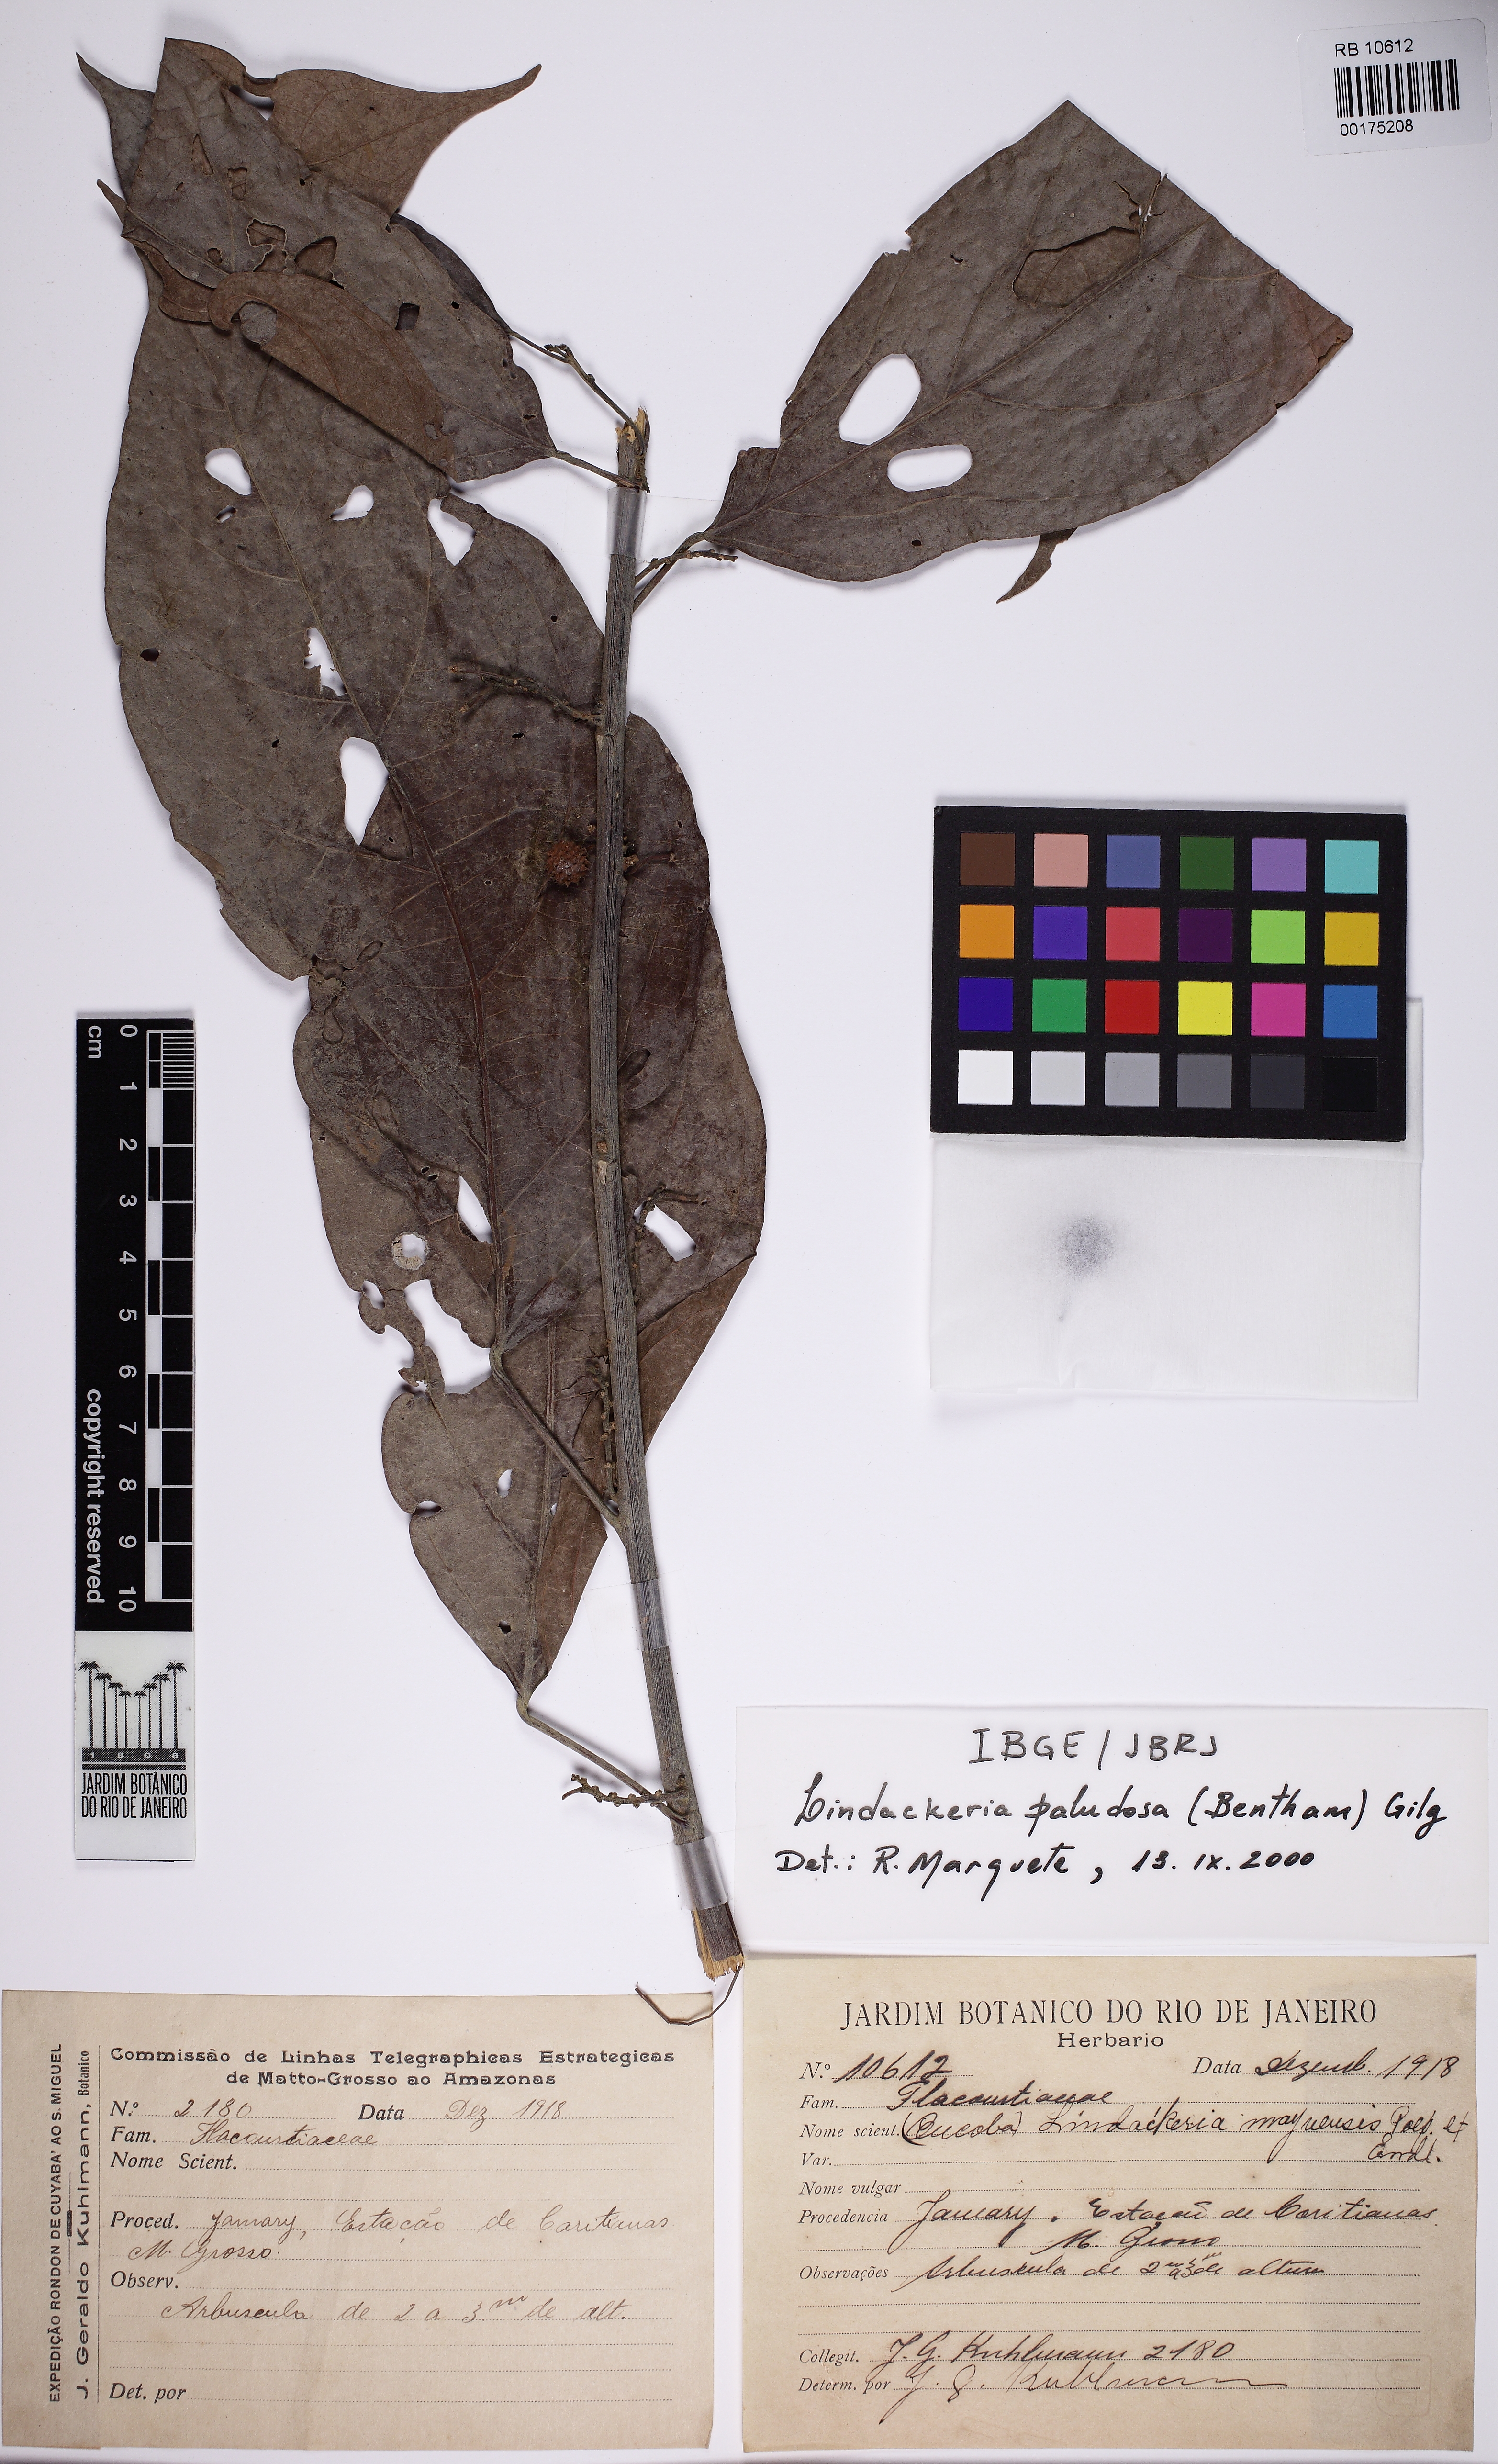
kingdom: Plantae
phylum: Tracheophyta
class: Magnoliopsida
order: Malpighiales
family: Achariaceae
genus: Lindackeria
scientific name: Lindackeria paludosa
